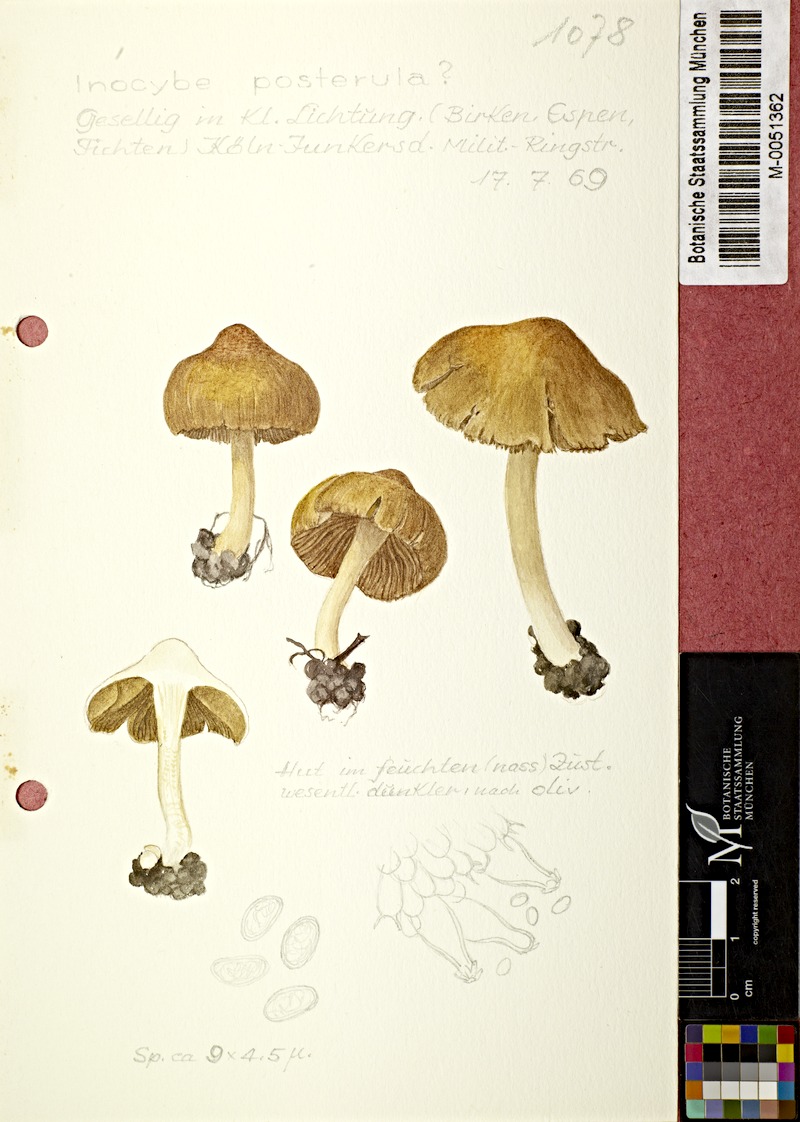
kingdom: Fungi
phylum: Basidiomycota
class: Agaricomycetes
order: Agaricales
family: Inocybaceae
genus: Inocybe
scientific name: Inocybe posterula
